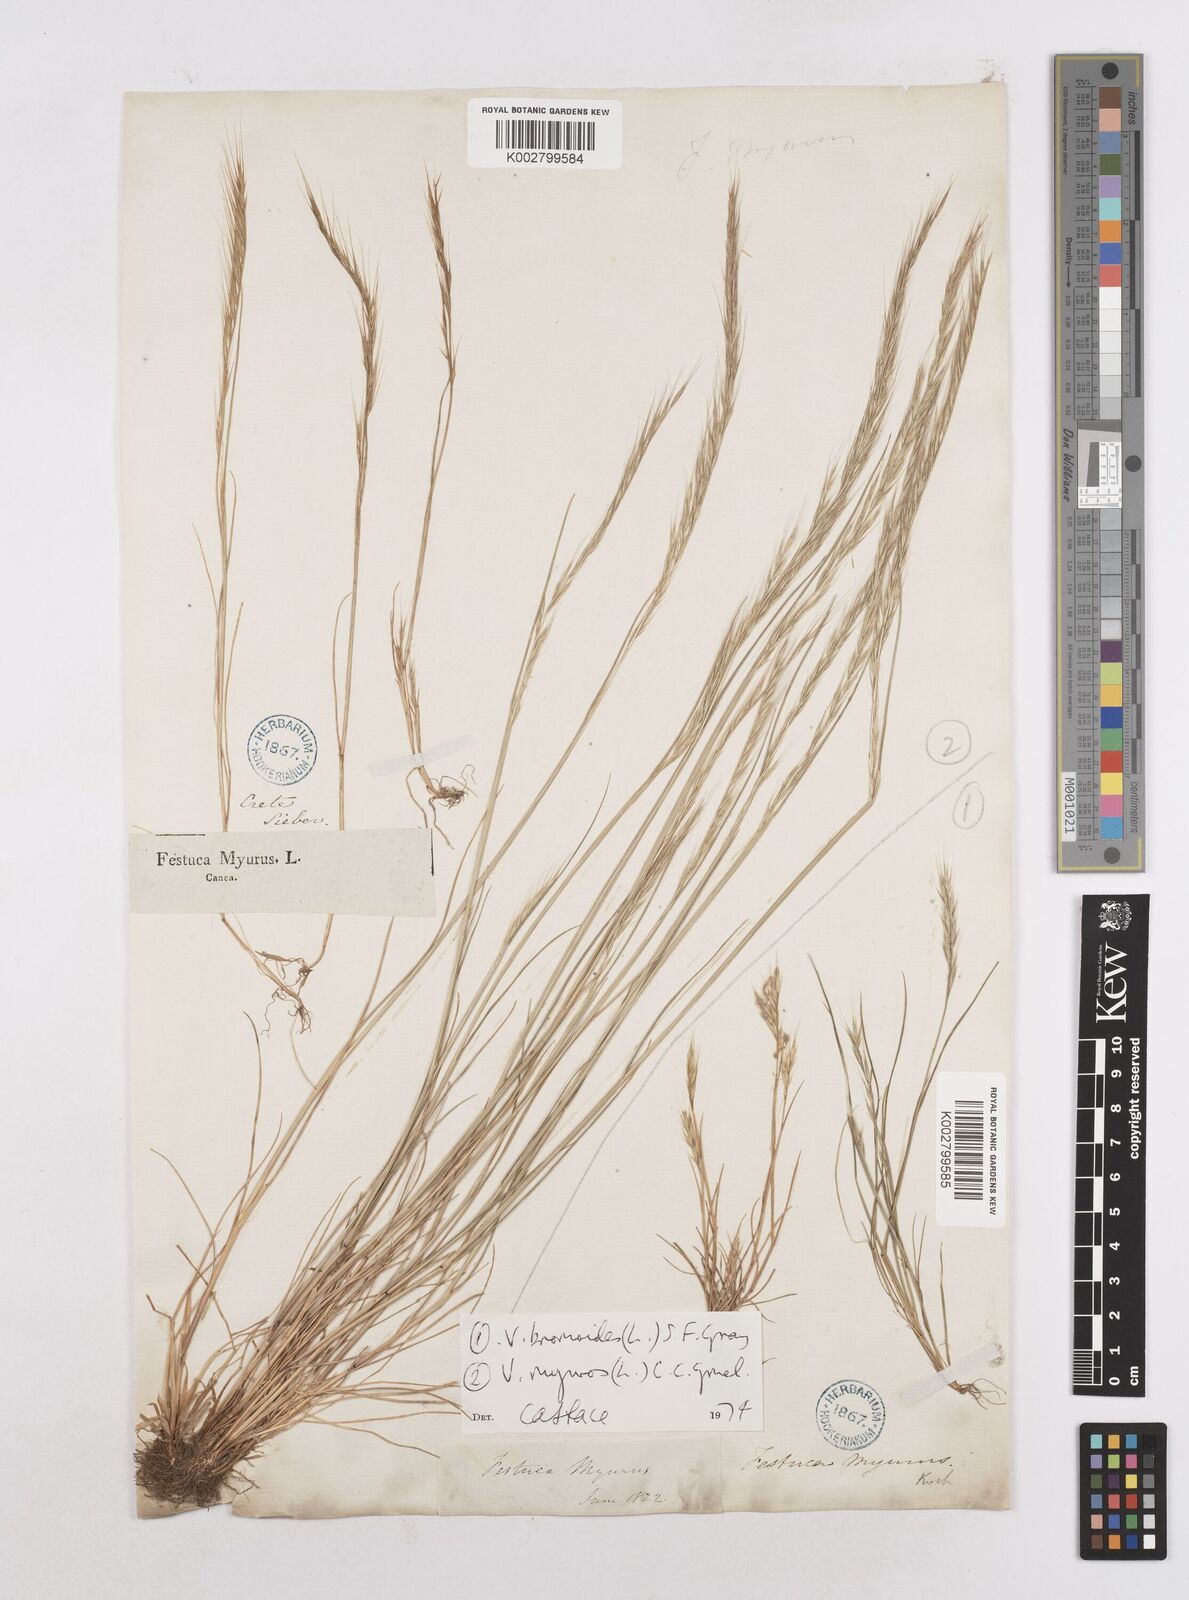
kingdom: Plantae
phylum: Tracheophyta
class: Liliopsida
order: Poales
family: Poaceae
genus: Festuca
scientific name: Festuca myuros
